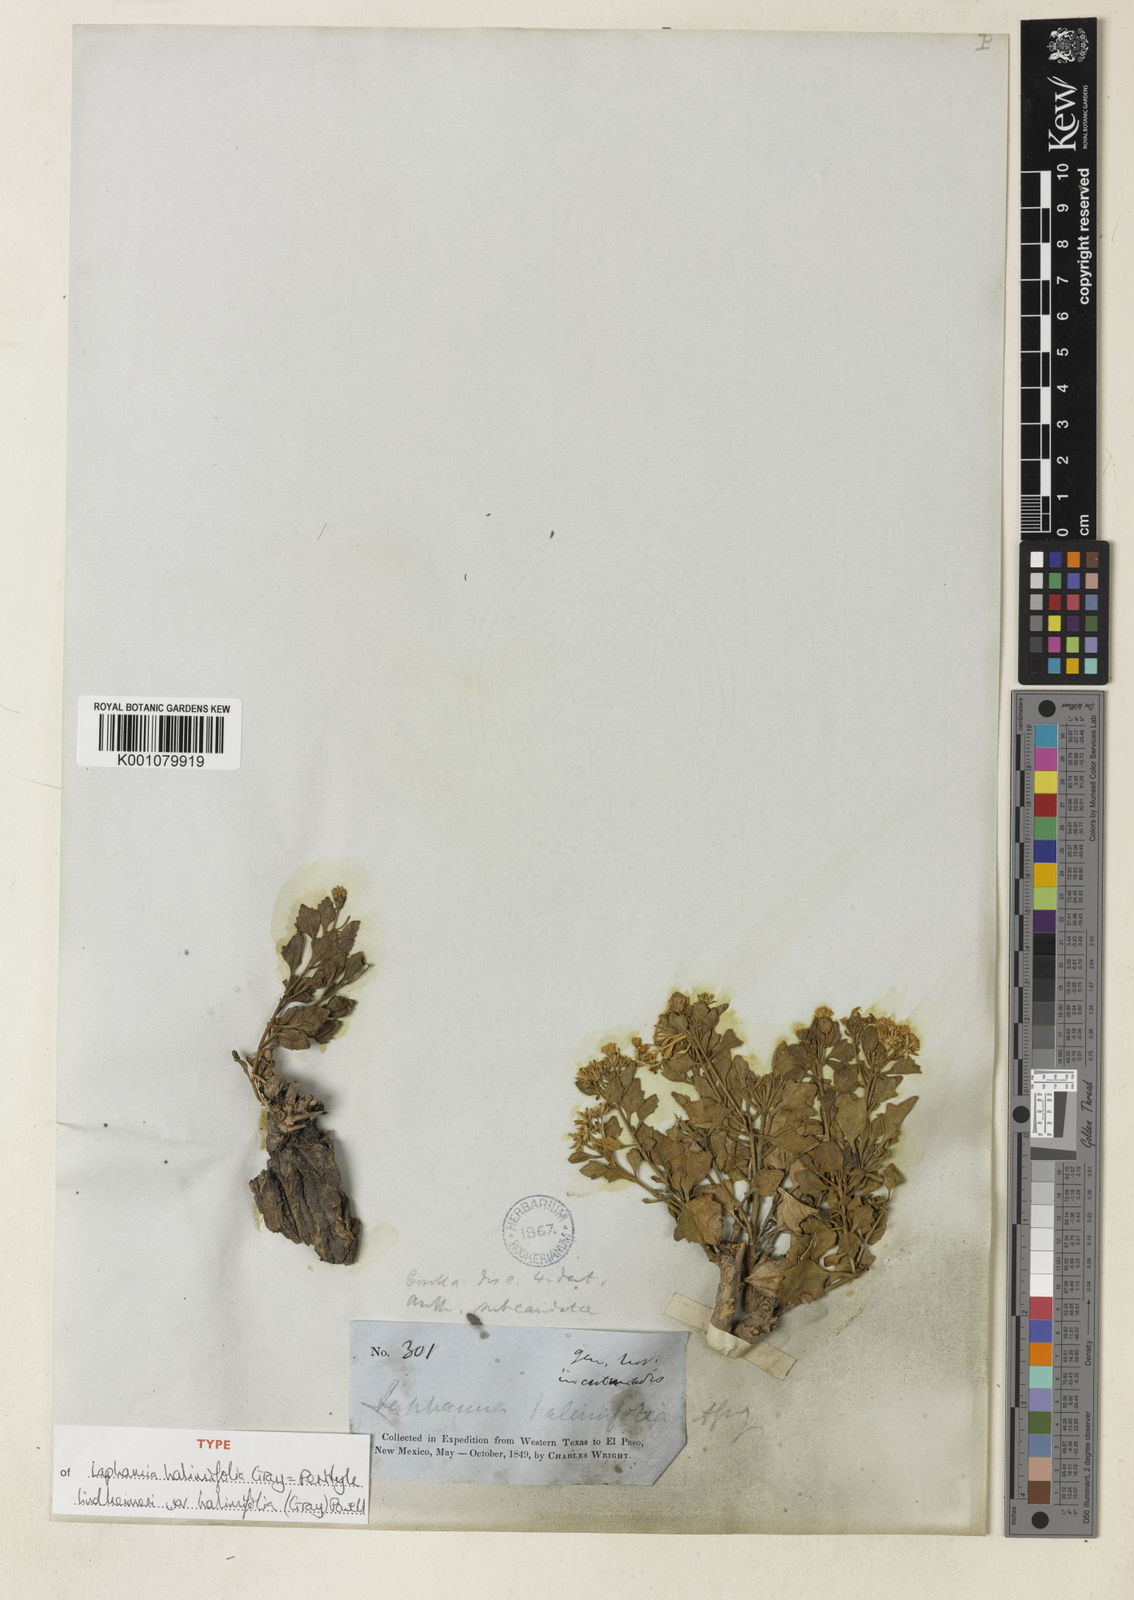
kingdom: Plantae
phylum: Tracheophyta
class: Magnoliopsida
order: Asterales
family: Asteraceae
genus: Laphamia
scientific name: Laphamia lindheimeri
